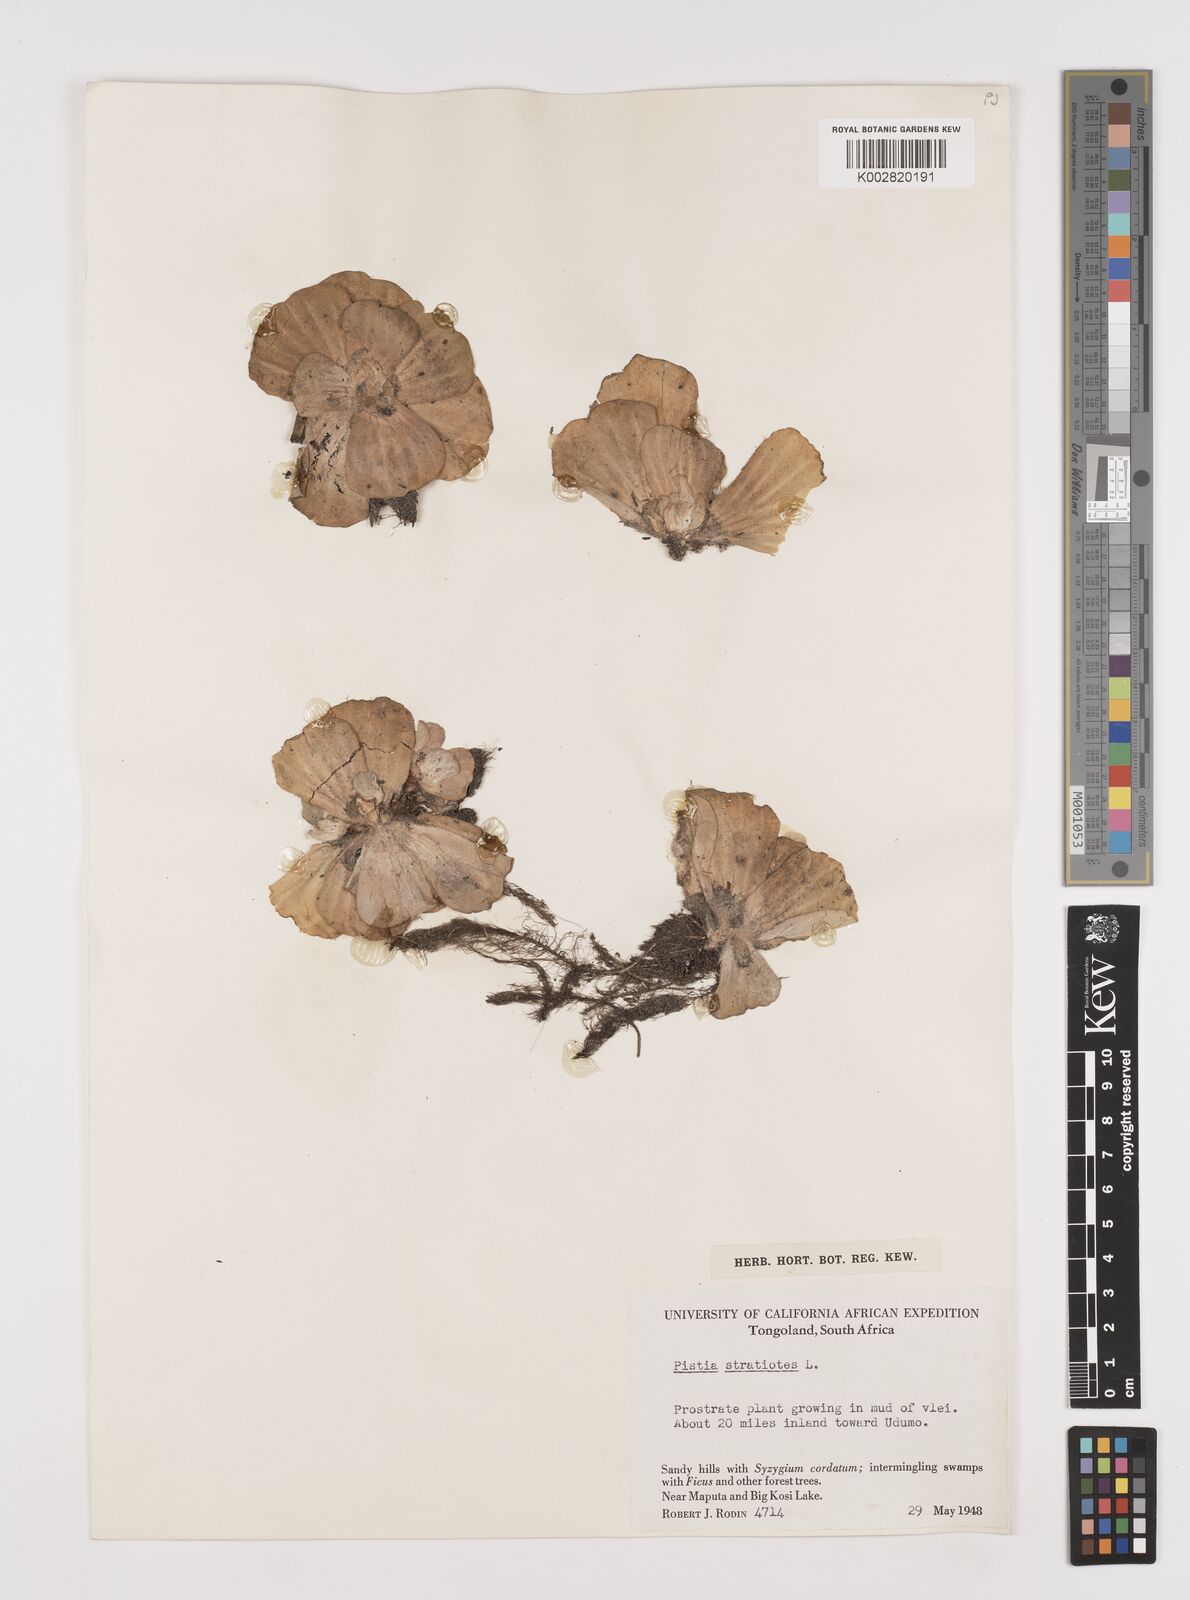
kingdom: Plantae
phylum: Tracheophyta
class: Liliopsida
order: Alismatales
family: Araceae
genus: Pistia
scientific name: Pistia stratiotes
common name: Water lettuce
